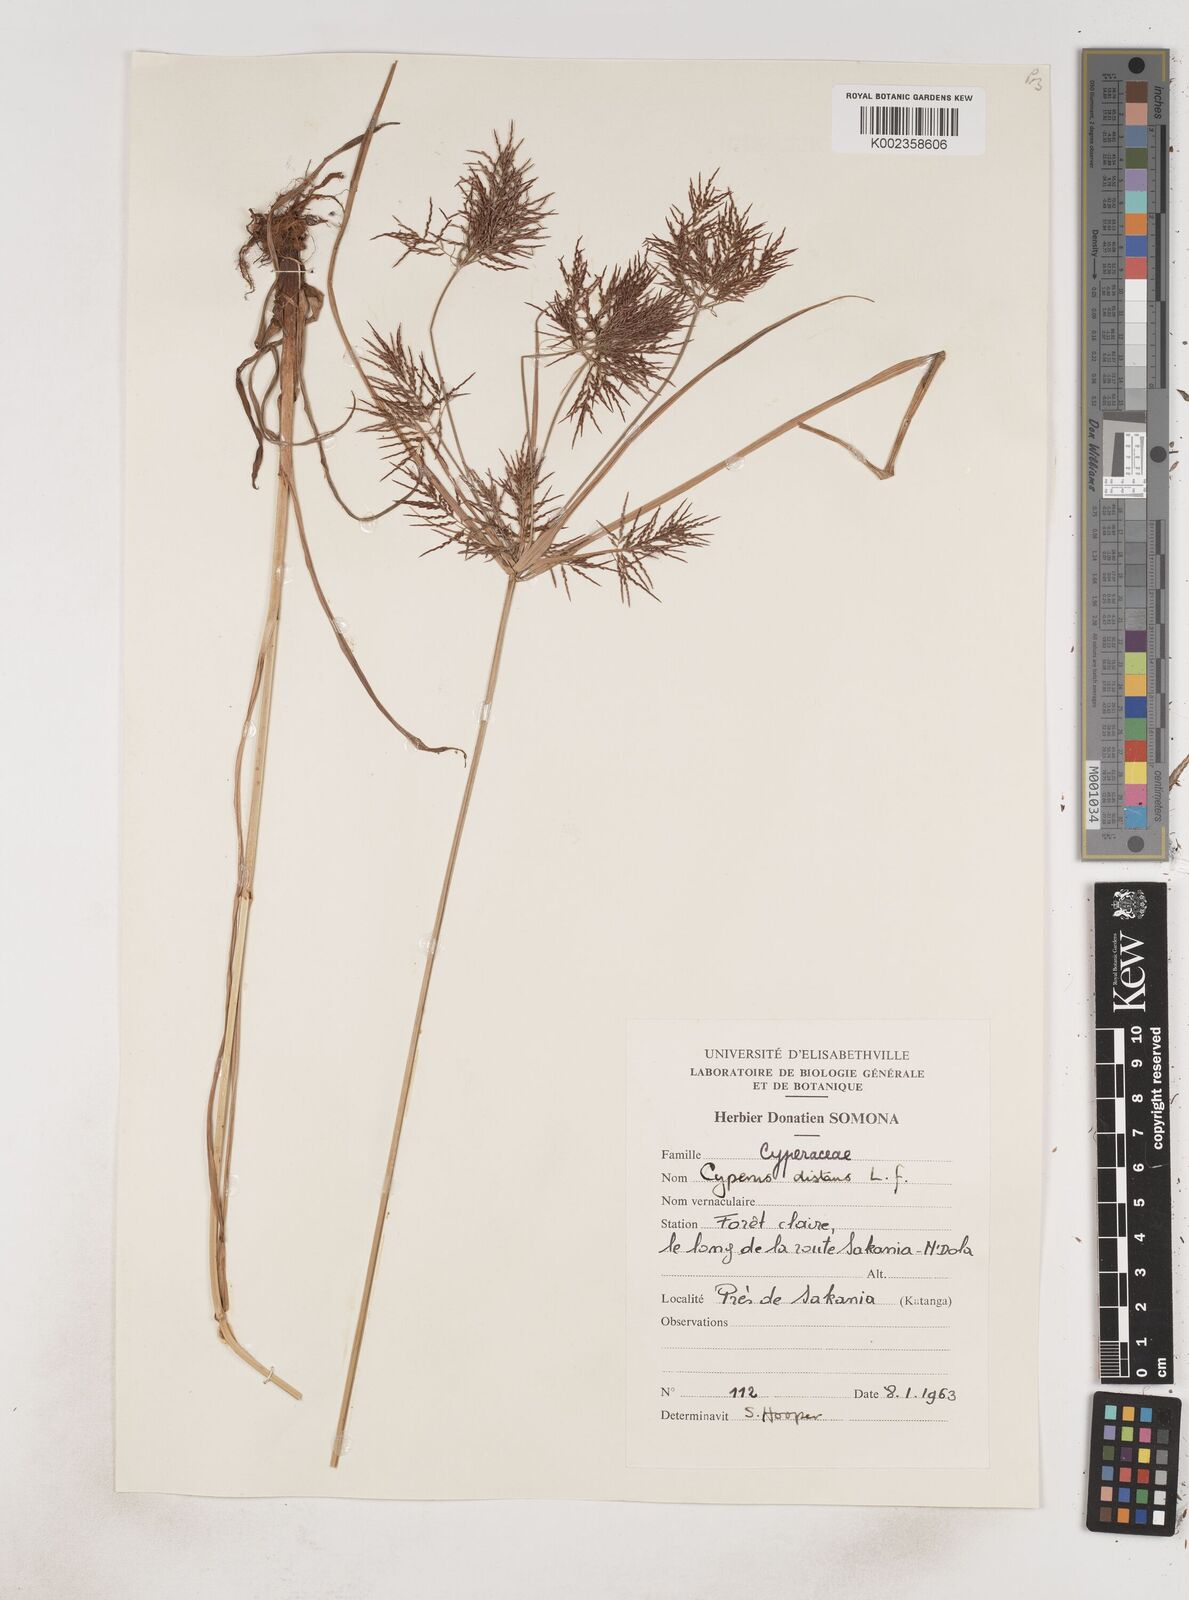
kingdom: Plantae
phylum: Tracheophyta
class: Liliopsida
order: Poales
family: Cyperaceae
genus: Cyperus
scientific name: Cyperus distans
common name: Slender cyperus
